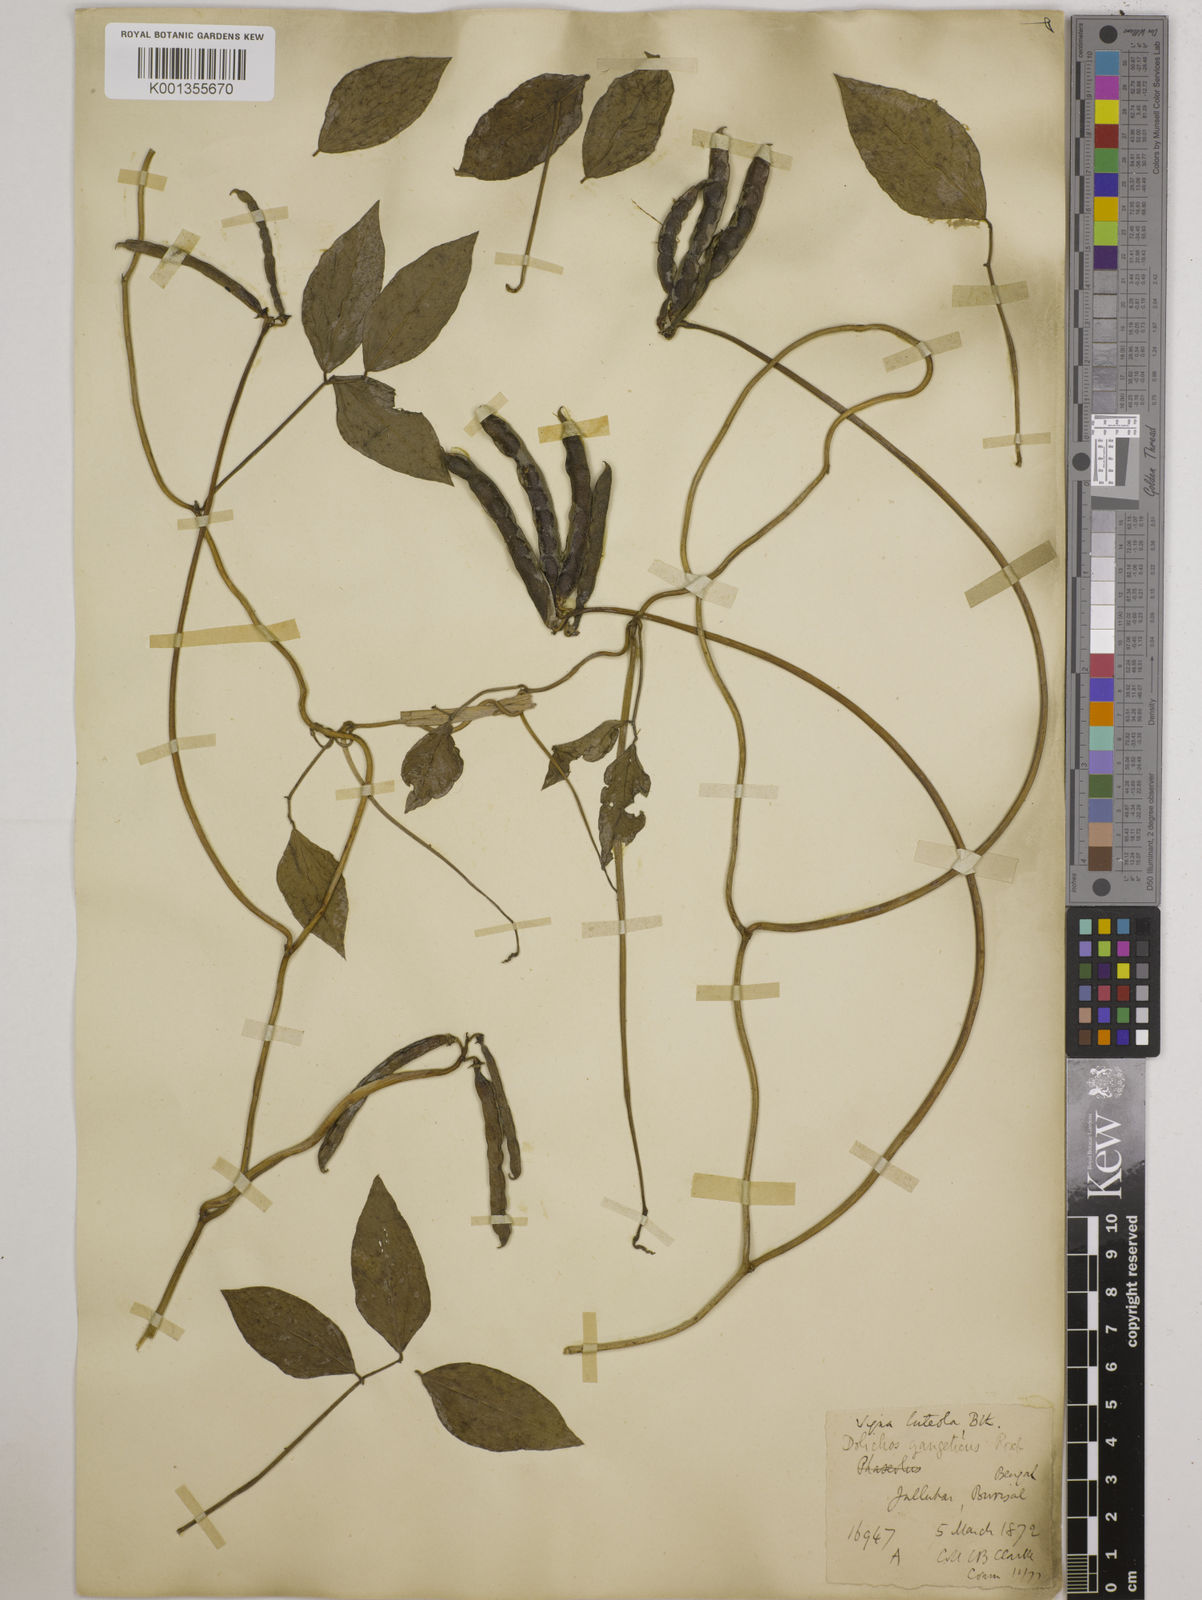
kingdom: Plantae
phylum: Tracheophyta
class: Magnoliopsida
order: Fabales
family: Fabaceae
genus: Vigna
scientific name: Vigna luteola
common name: Hairypod cowpea
